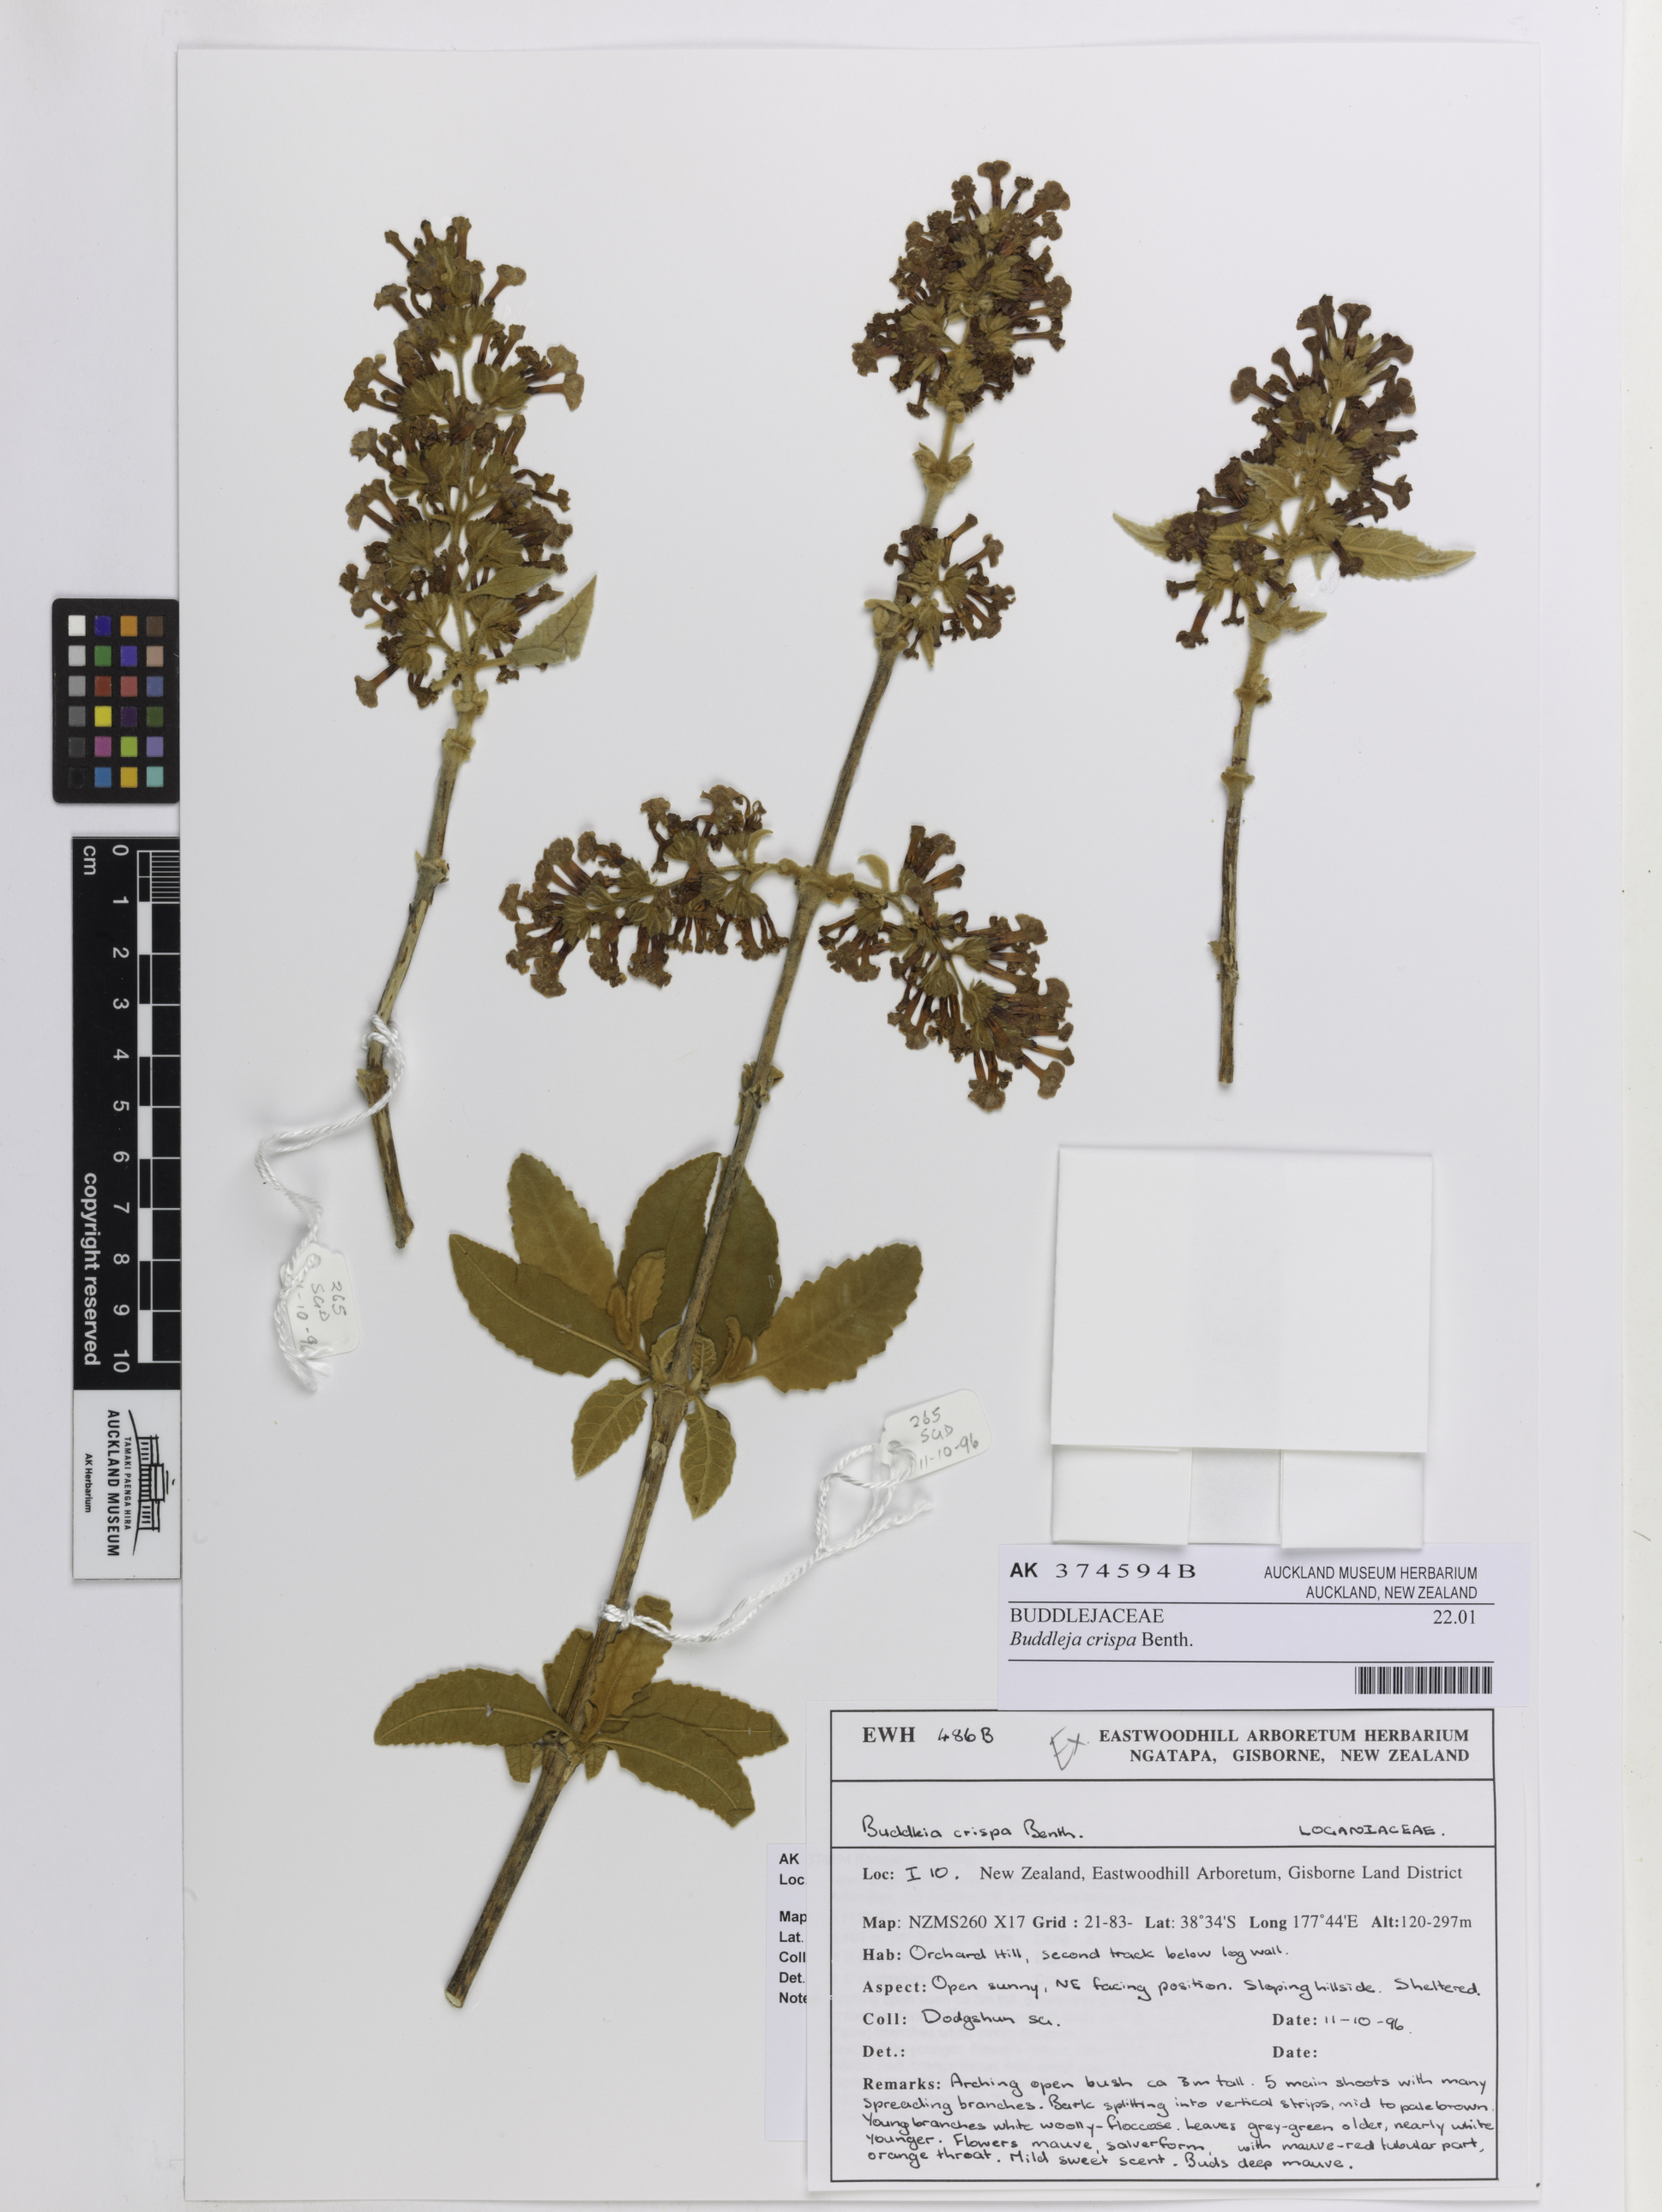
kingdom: Plantae
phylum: Tracheophyta
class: Magnoliopsida
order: Lamiales
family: Scrophulariaceae
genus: Buddleja
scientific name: Buddleja crispa
